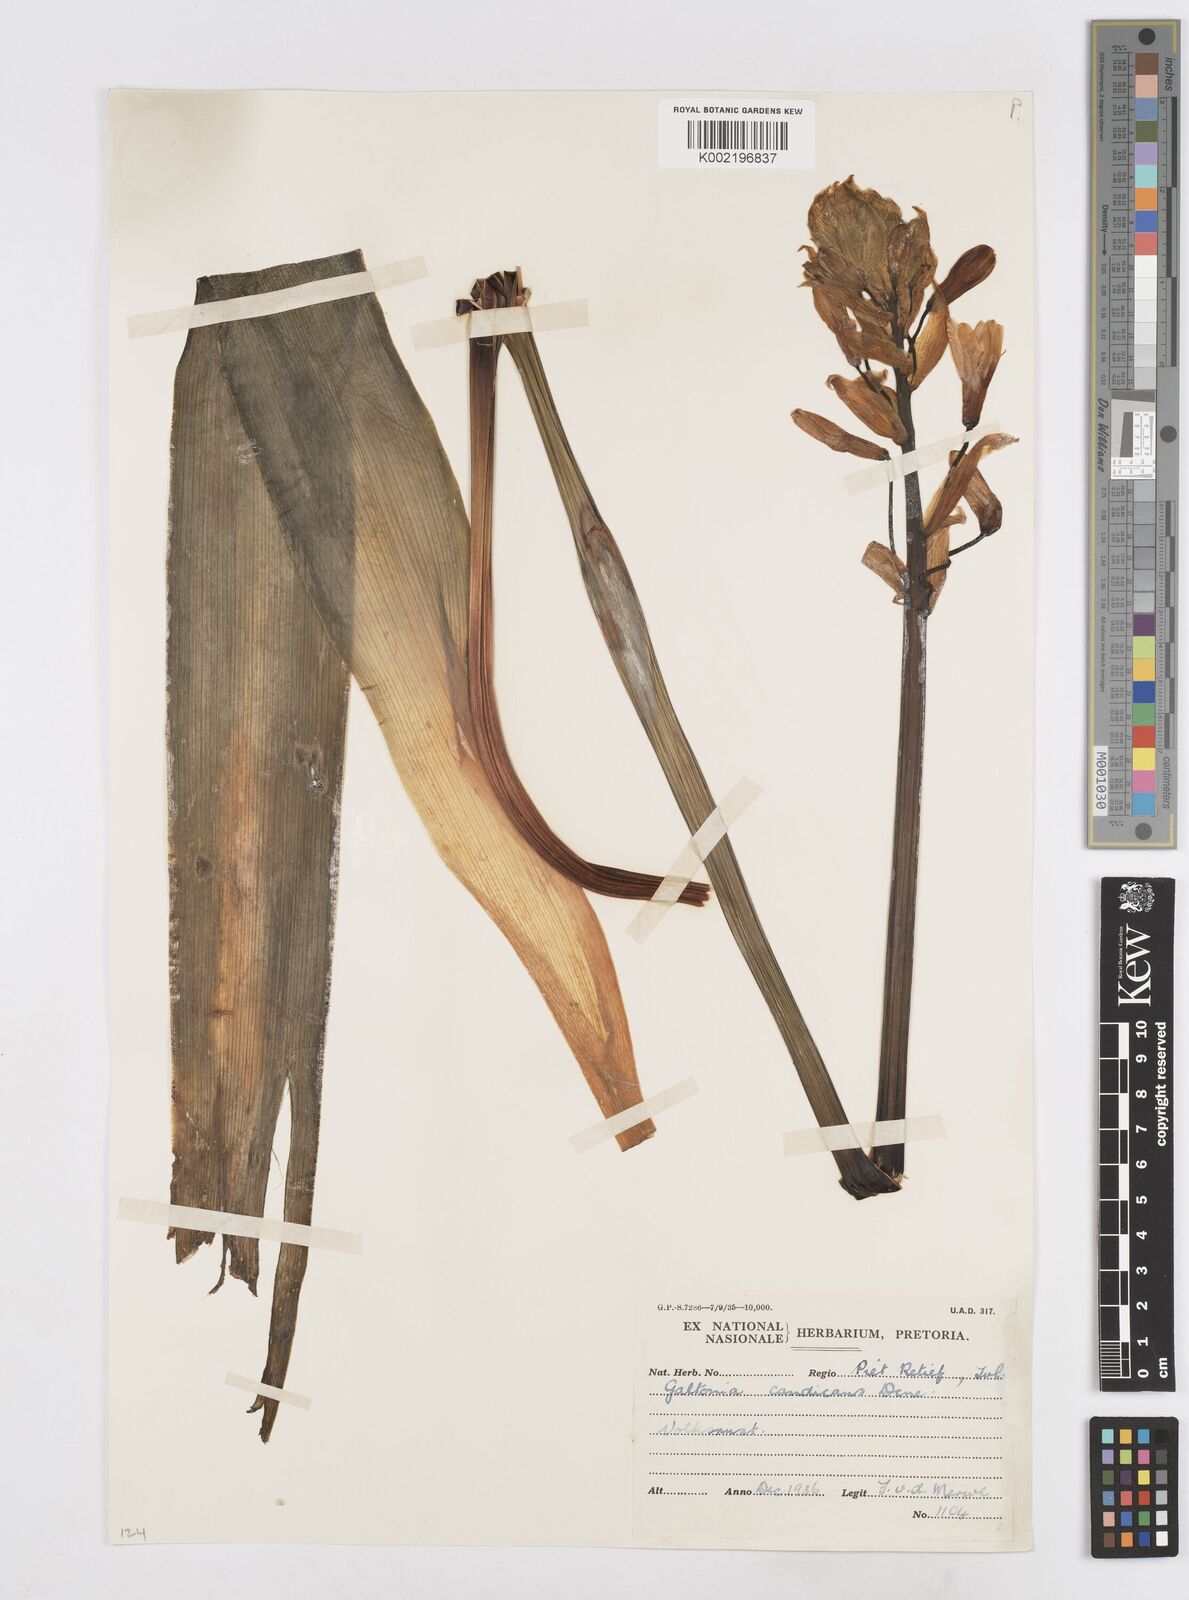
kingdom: Plantae
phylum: Tracheophyta
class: Liliopsida
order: Asparagales
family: Asparagaceae
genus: Ornithogalum
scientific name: Ornithogalum candicans
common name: Summer-hyacinth
